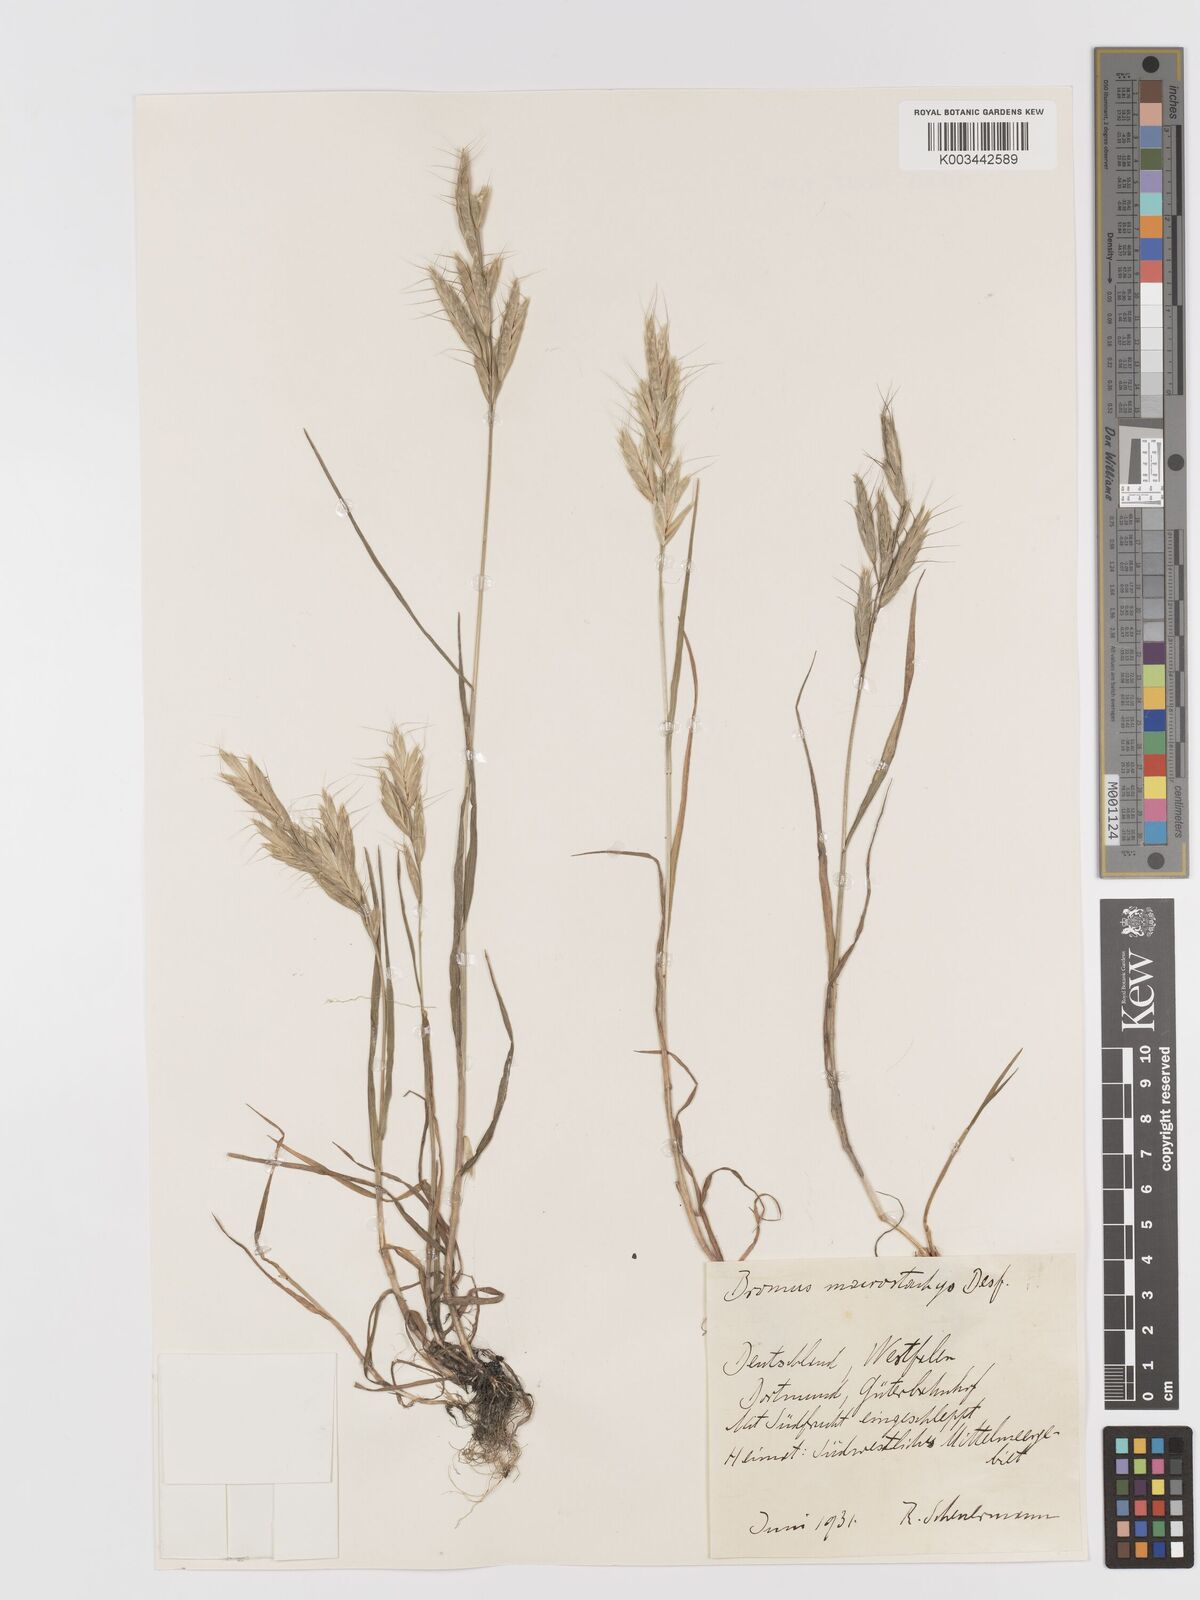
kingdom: Plantae
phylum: Tracheophyta
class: Liliopsida
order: Poales
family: Poaceae
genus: Bromus
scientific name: Bromus lanceolatus
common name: Mediterranean brome
